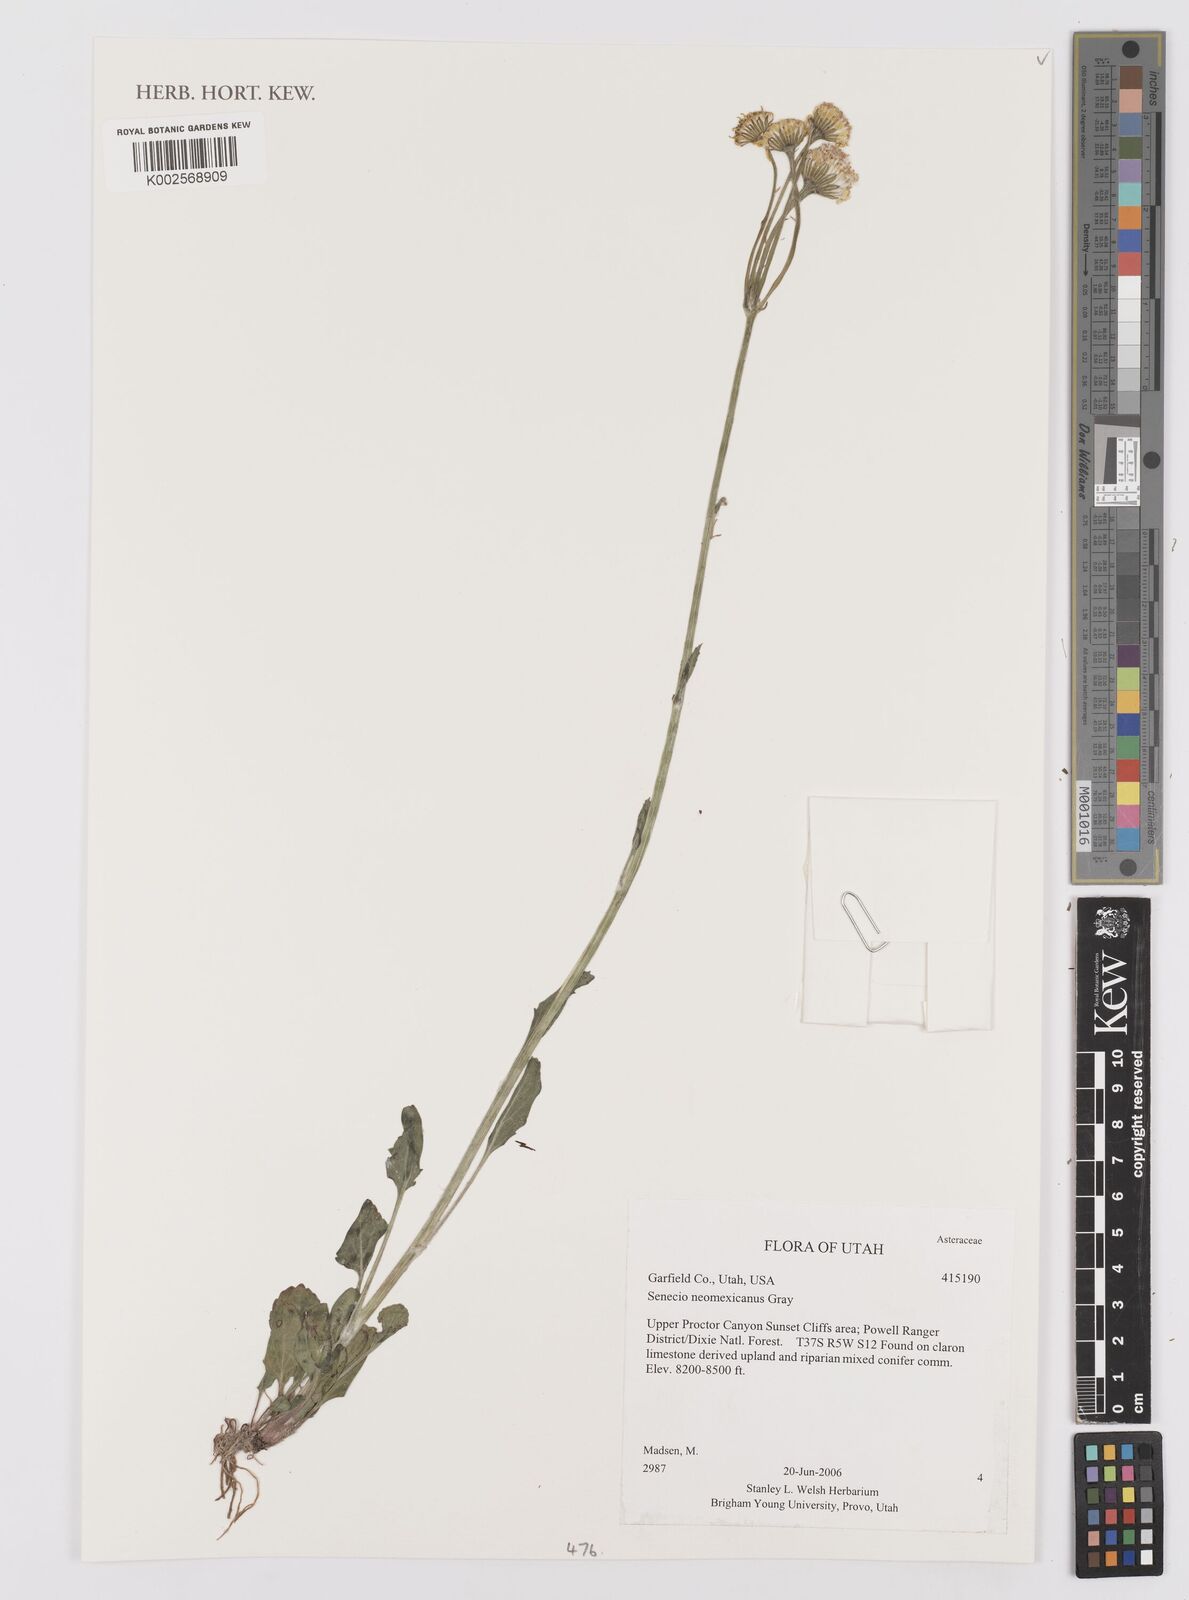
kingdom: Plantae
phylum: Tracheophyta
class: Magnoliopsida
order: Asterales
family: Asteraceae
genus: Packera
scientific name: Packera neomexicana
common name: New mexico butterweed
